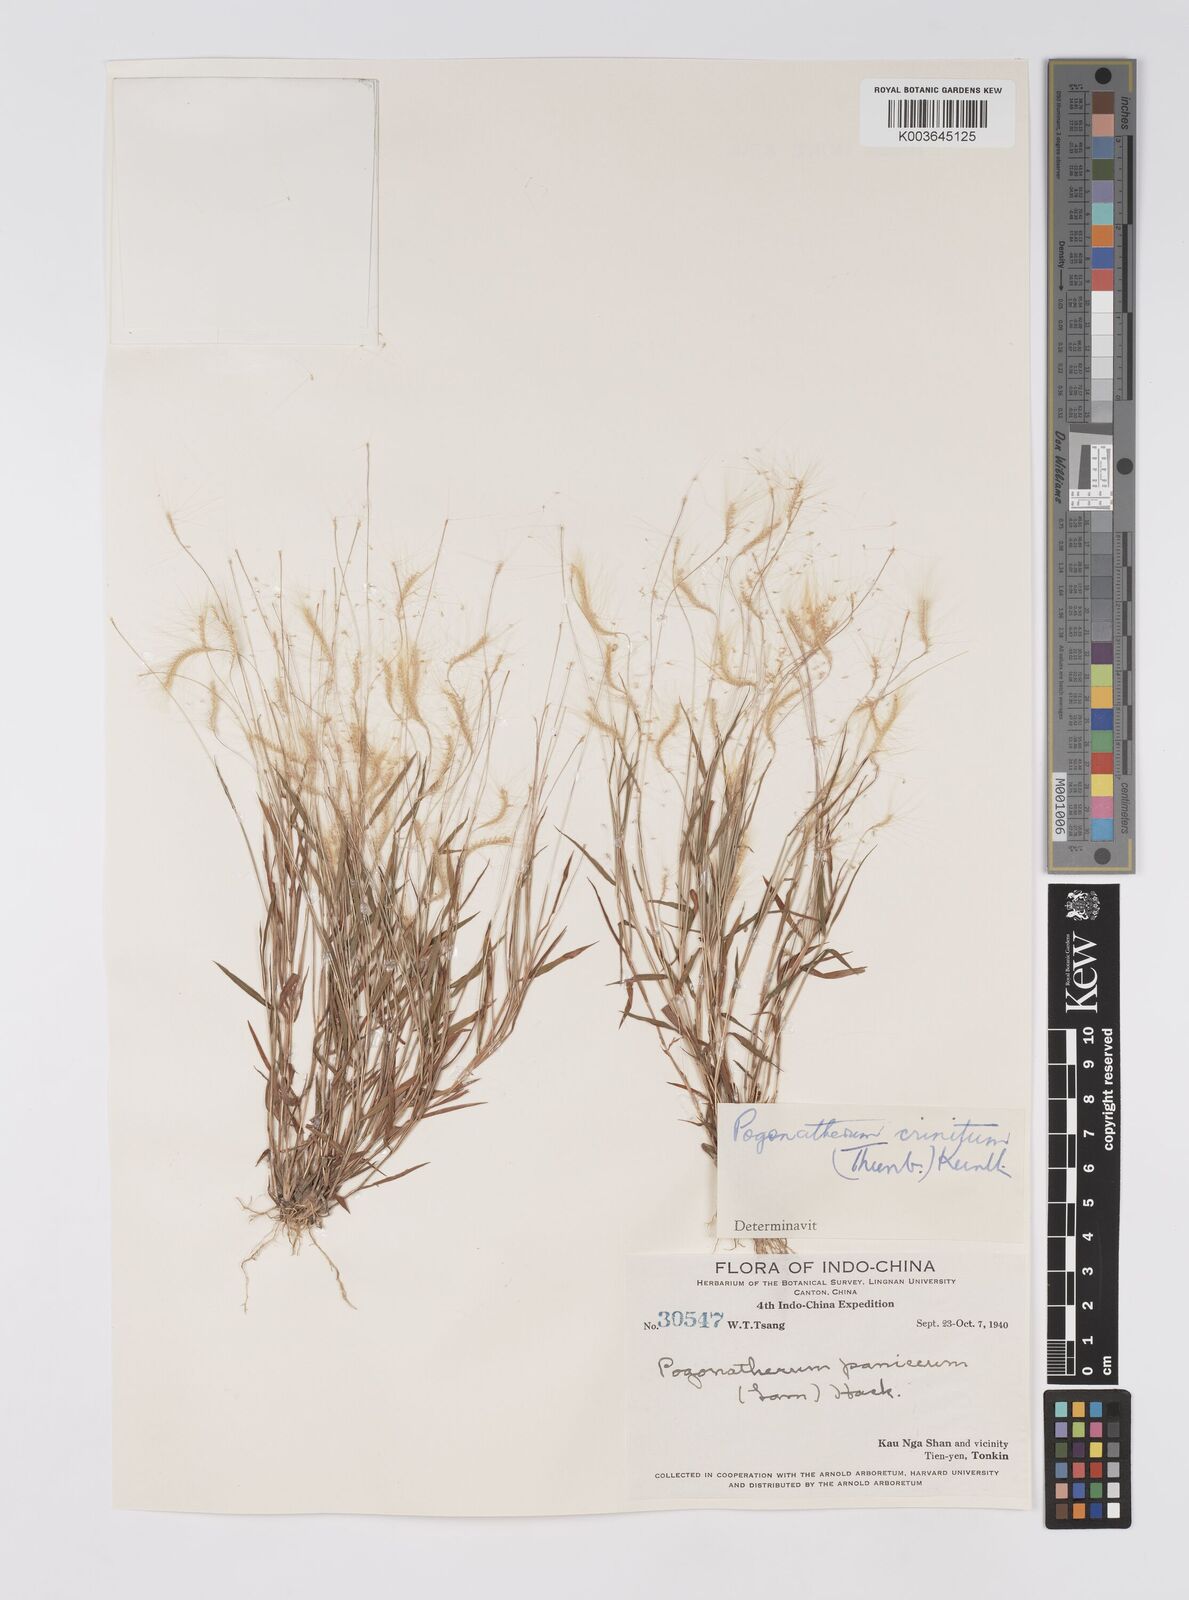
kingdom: Plantae
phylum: Tracheophyta
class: Liliopsida
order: Poales
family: Poaceae
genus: Pogonatherum
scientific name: Pogonatherum crinitum
